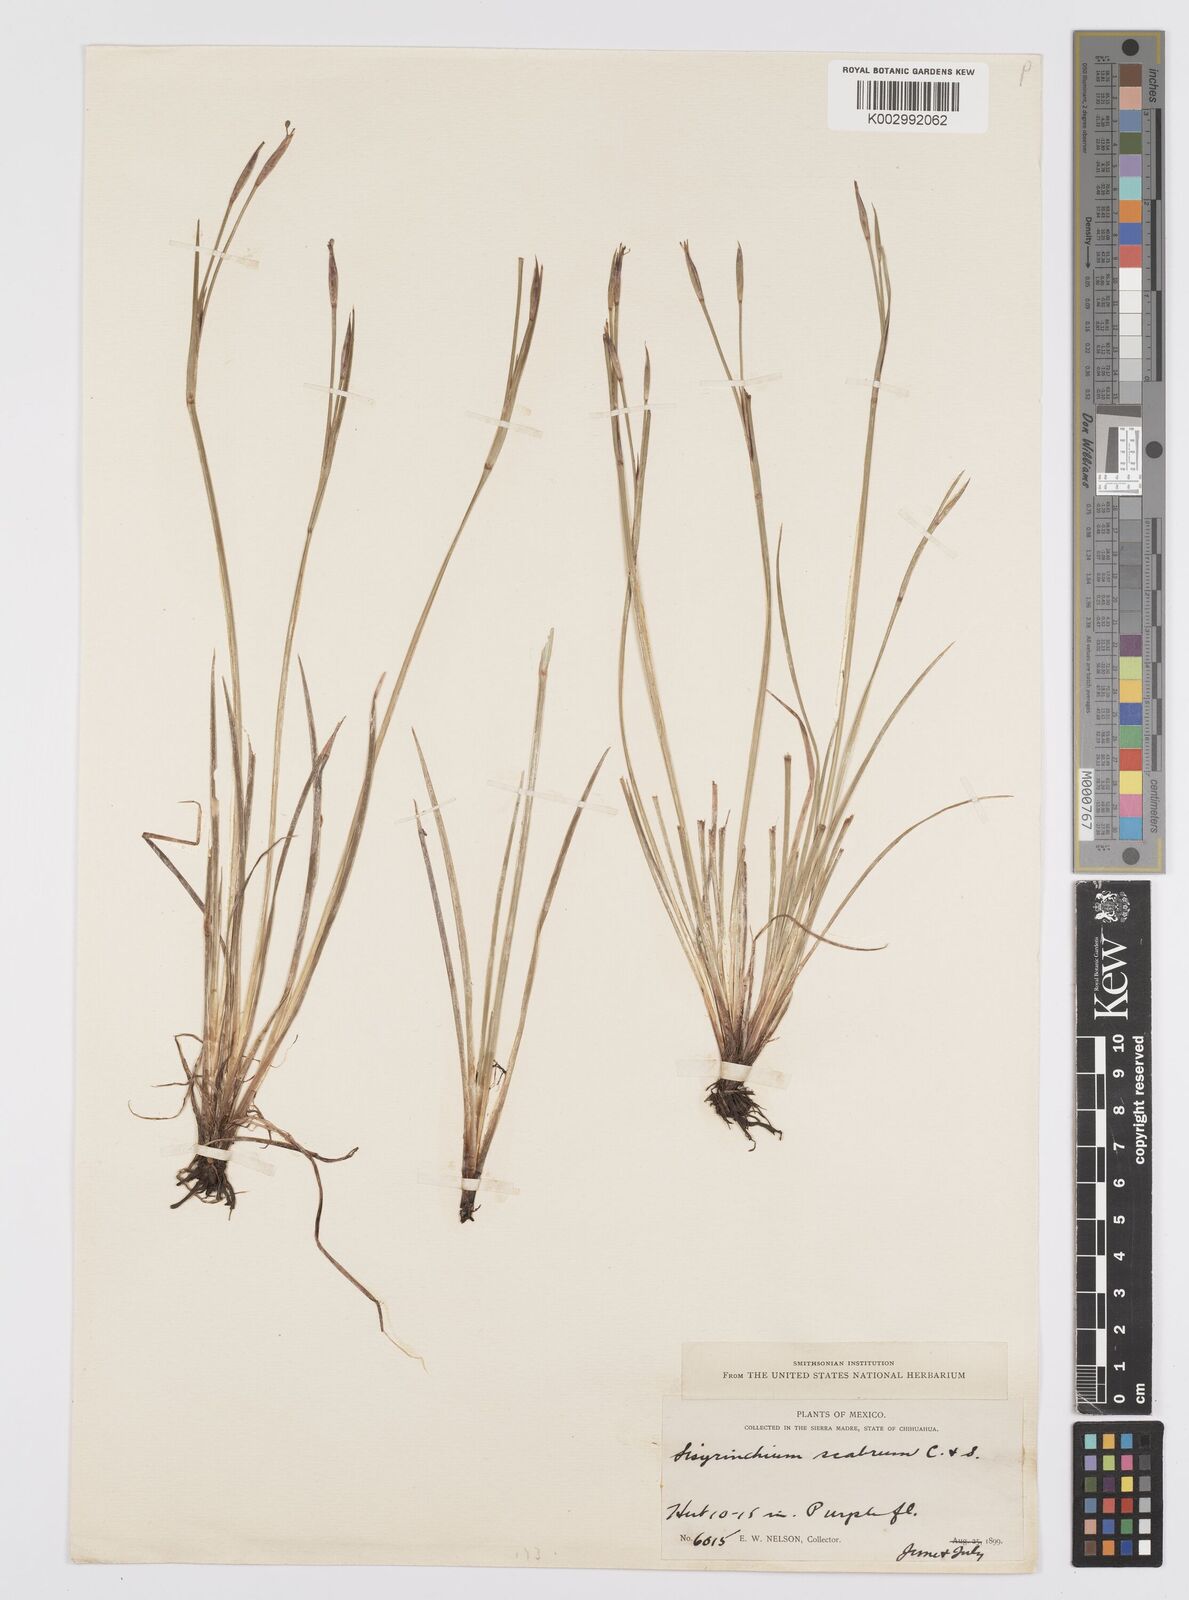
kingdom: Plantae
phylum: Tracheophyta
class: Liliopsida
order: Asparagales
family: Iridaceae
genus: Sisyrinchium
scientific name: Sisyrinchium scabrum
